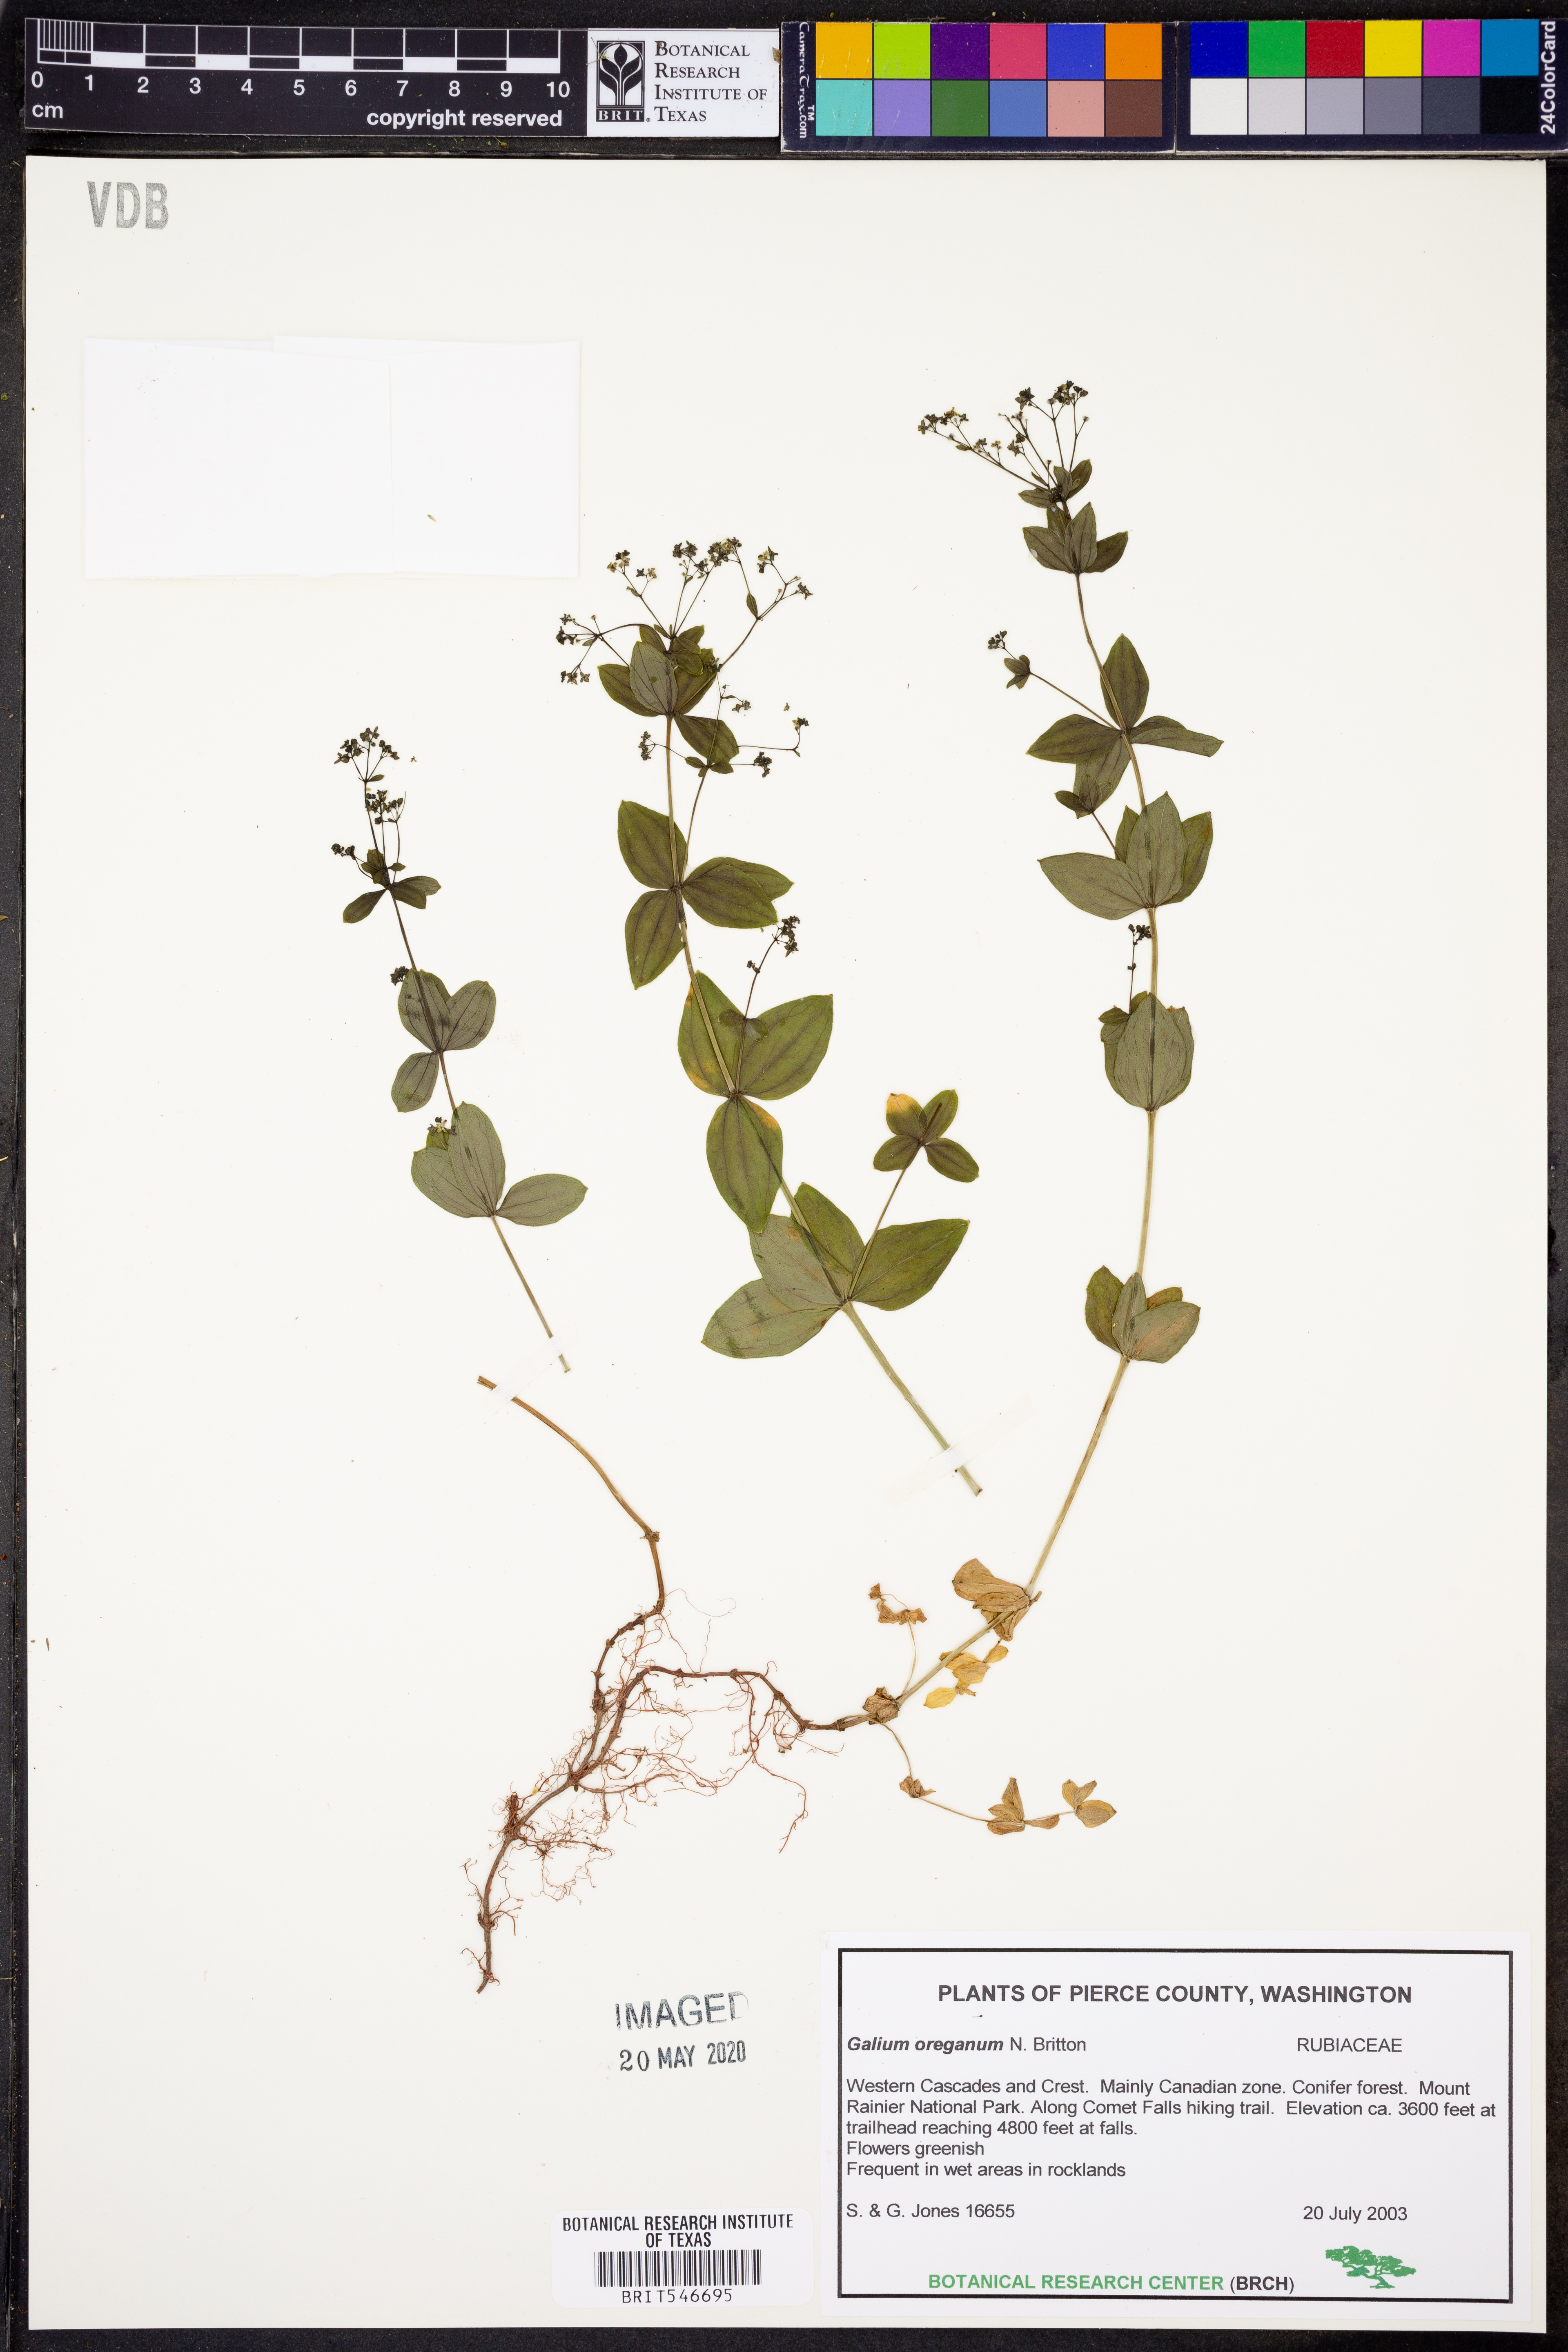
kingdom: Plantae
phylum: Tracheophyta
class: Magnoliopsida
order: Gentianales
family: Rubiaceae
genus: Galium
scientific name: Galium oreganum
